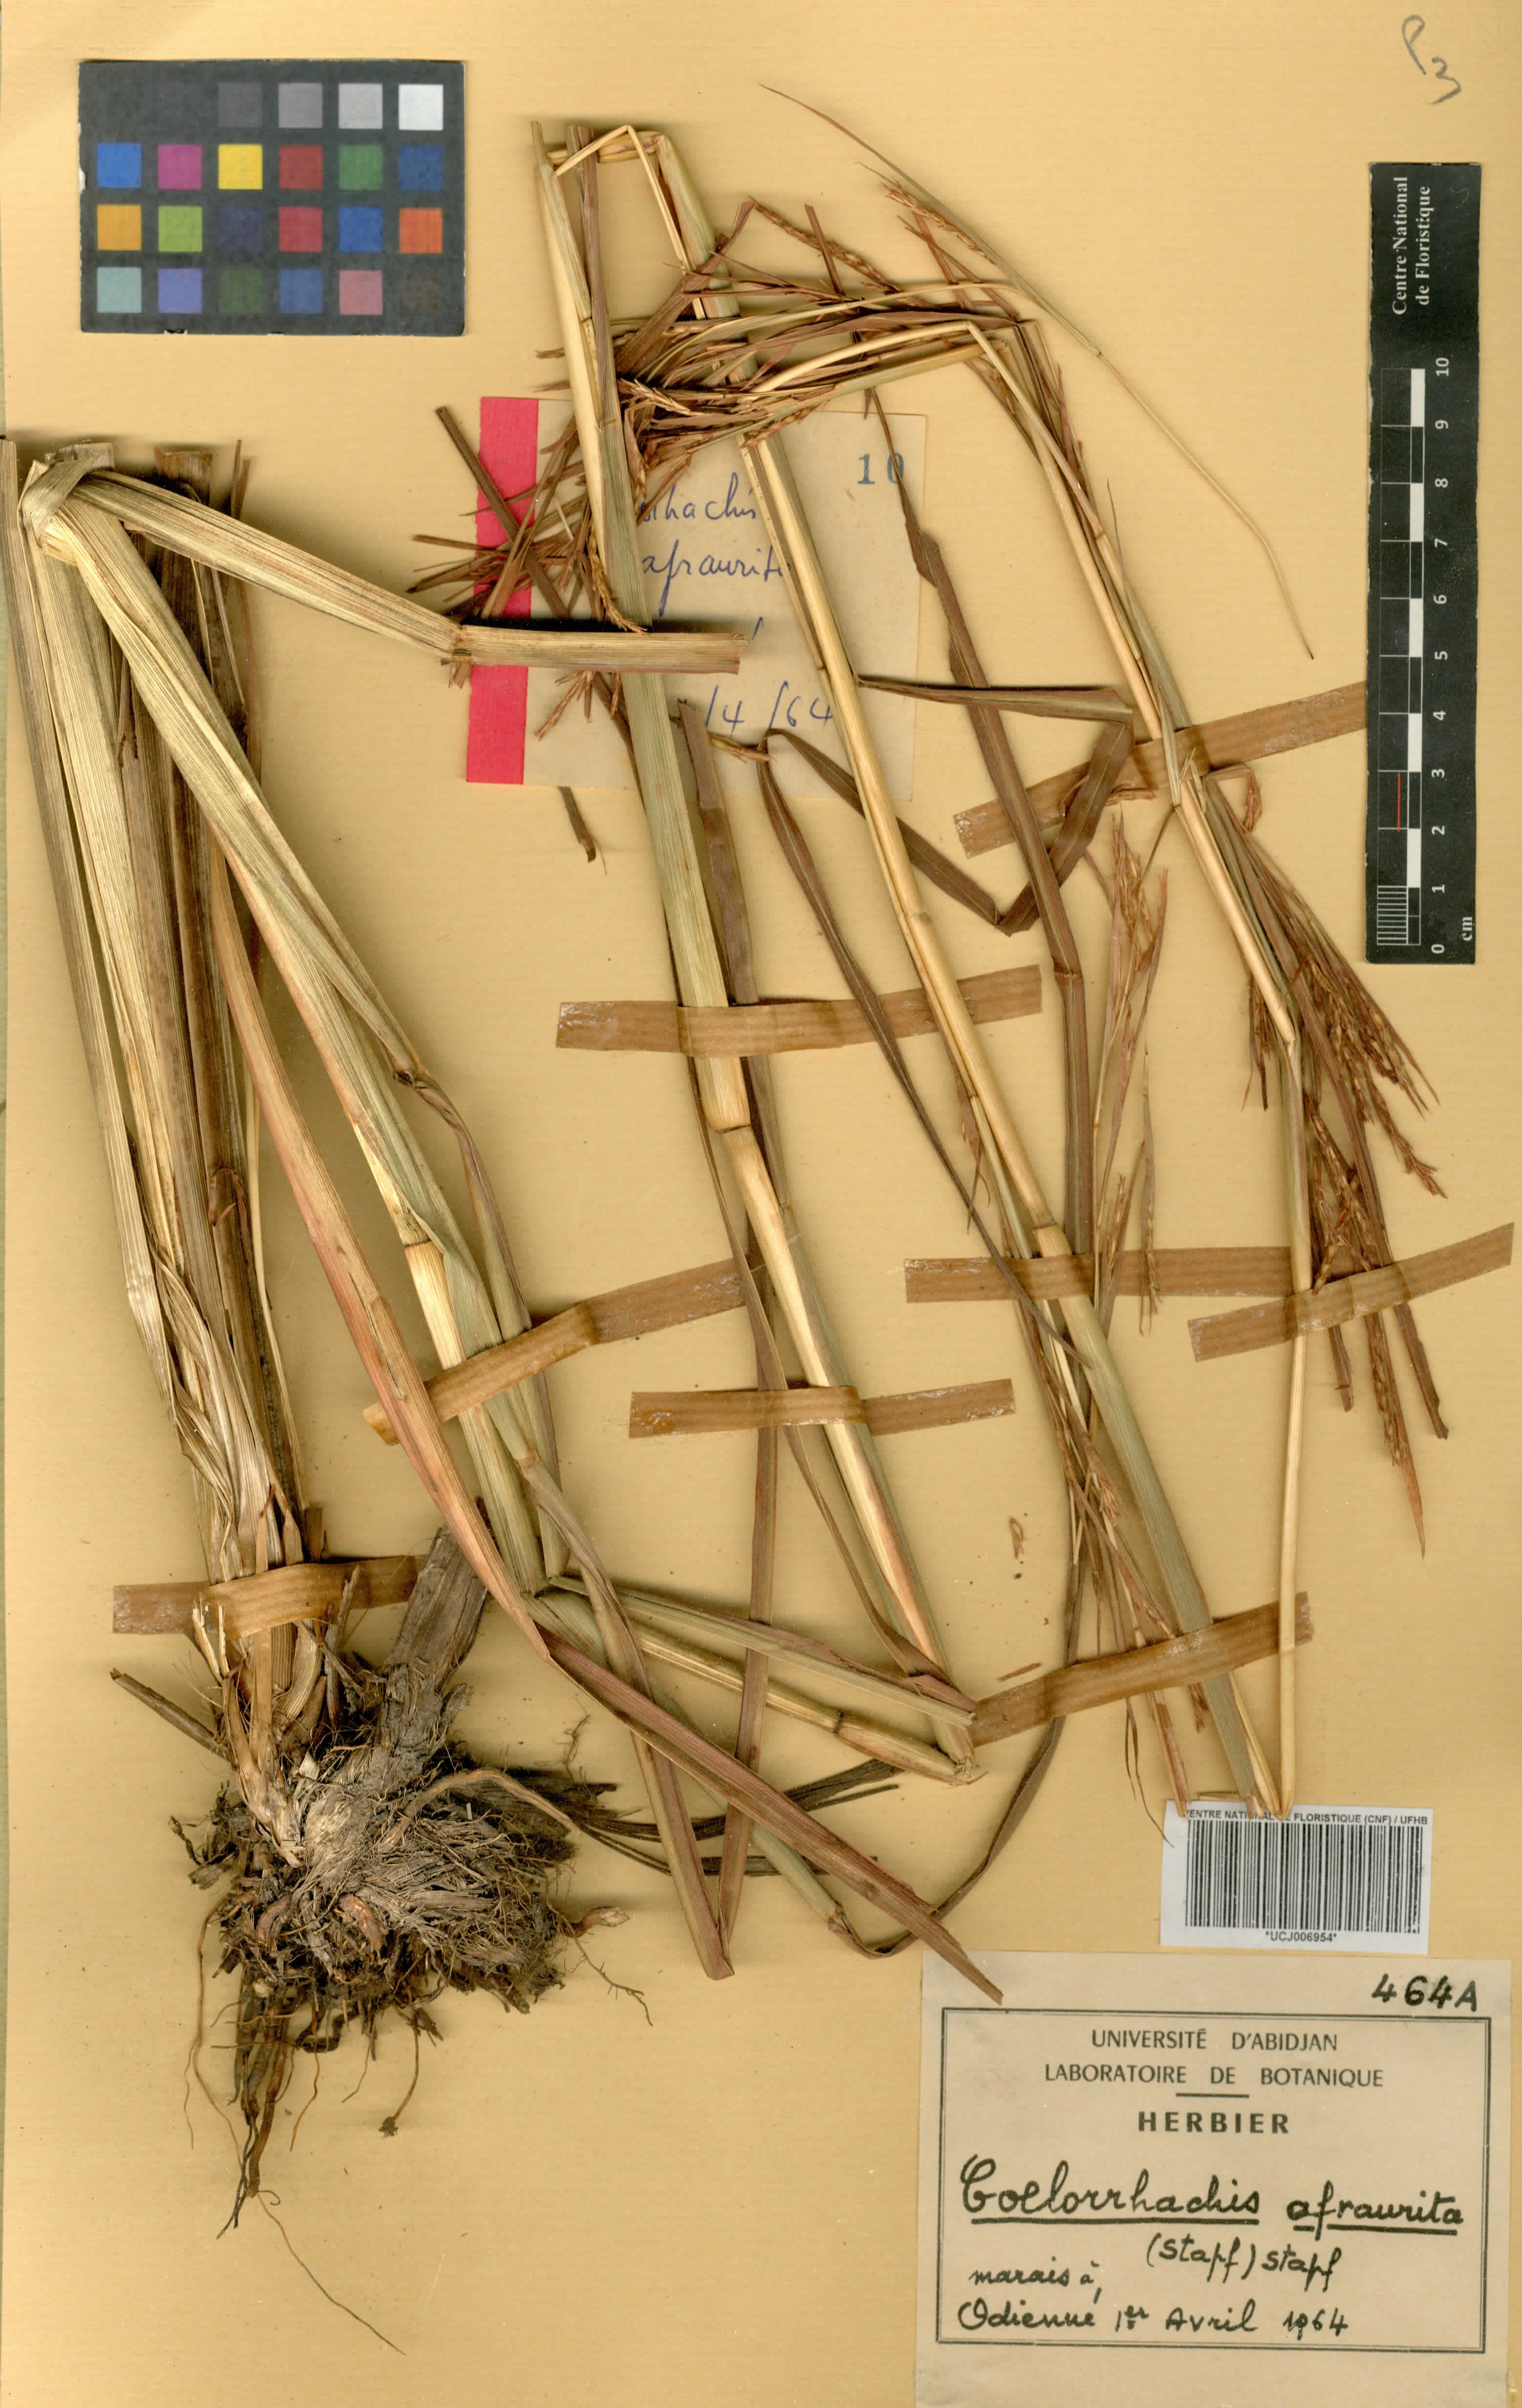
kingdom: Plantae
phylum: Tracheophyta
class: Liliopsida
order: Poales
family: Poaceae
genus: Coix
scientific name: Coix lacryma-jobi
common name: Job's tears
